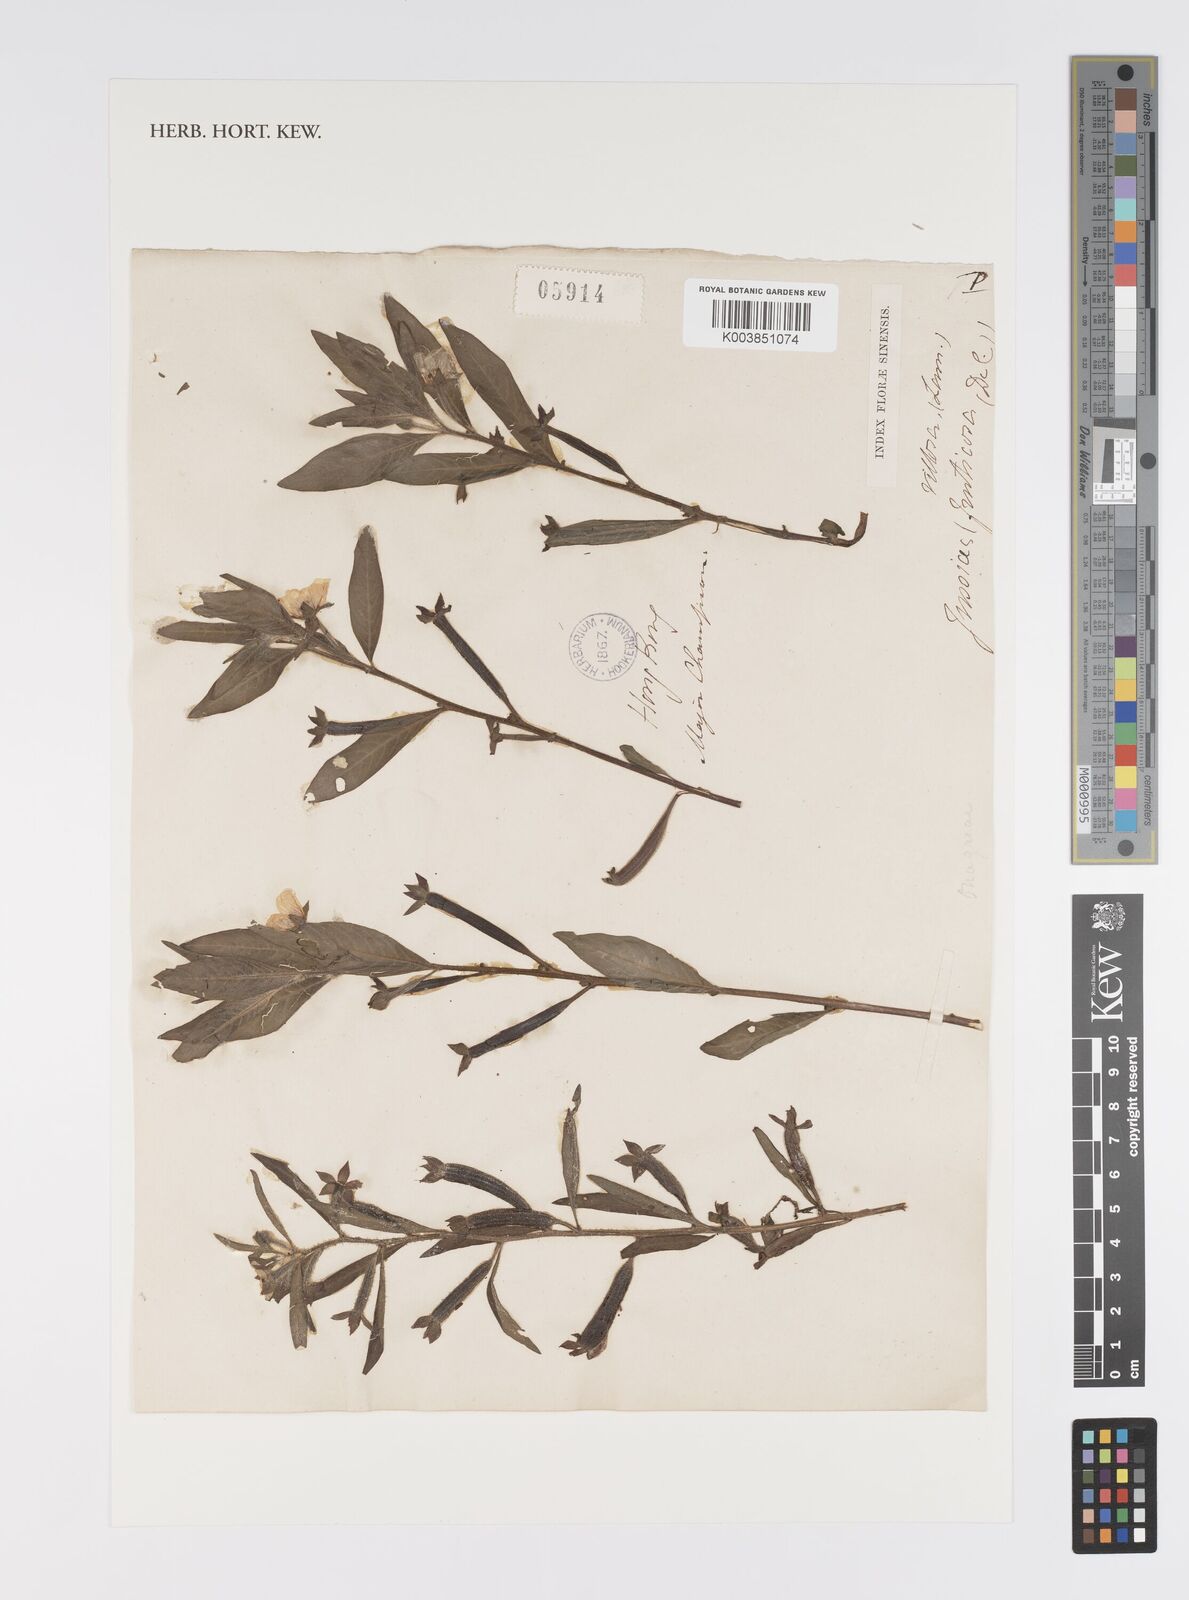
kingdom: Plantae
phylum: Tracheophyta
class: Magnoliopsida
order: Myrtales
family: Onagraceae
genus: Ludwigia
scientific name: Ludwigia octovalvis
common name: Water-primrose
